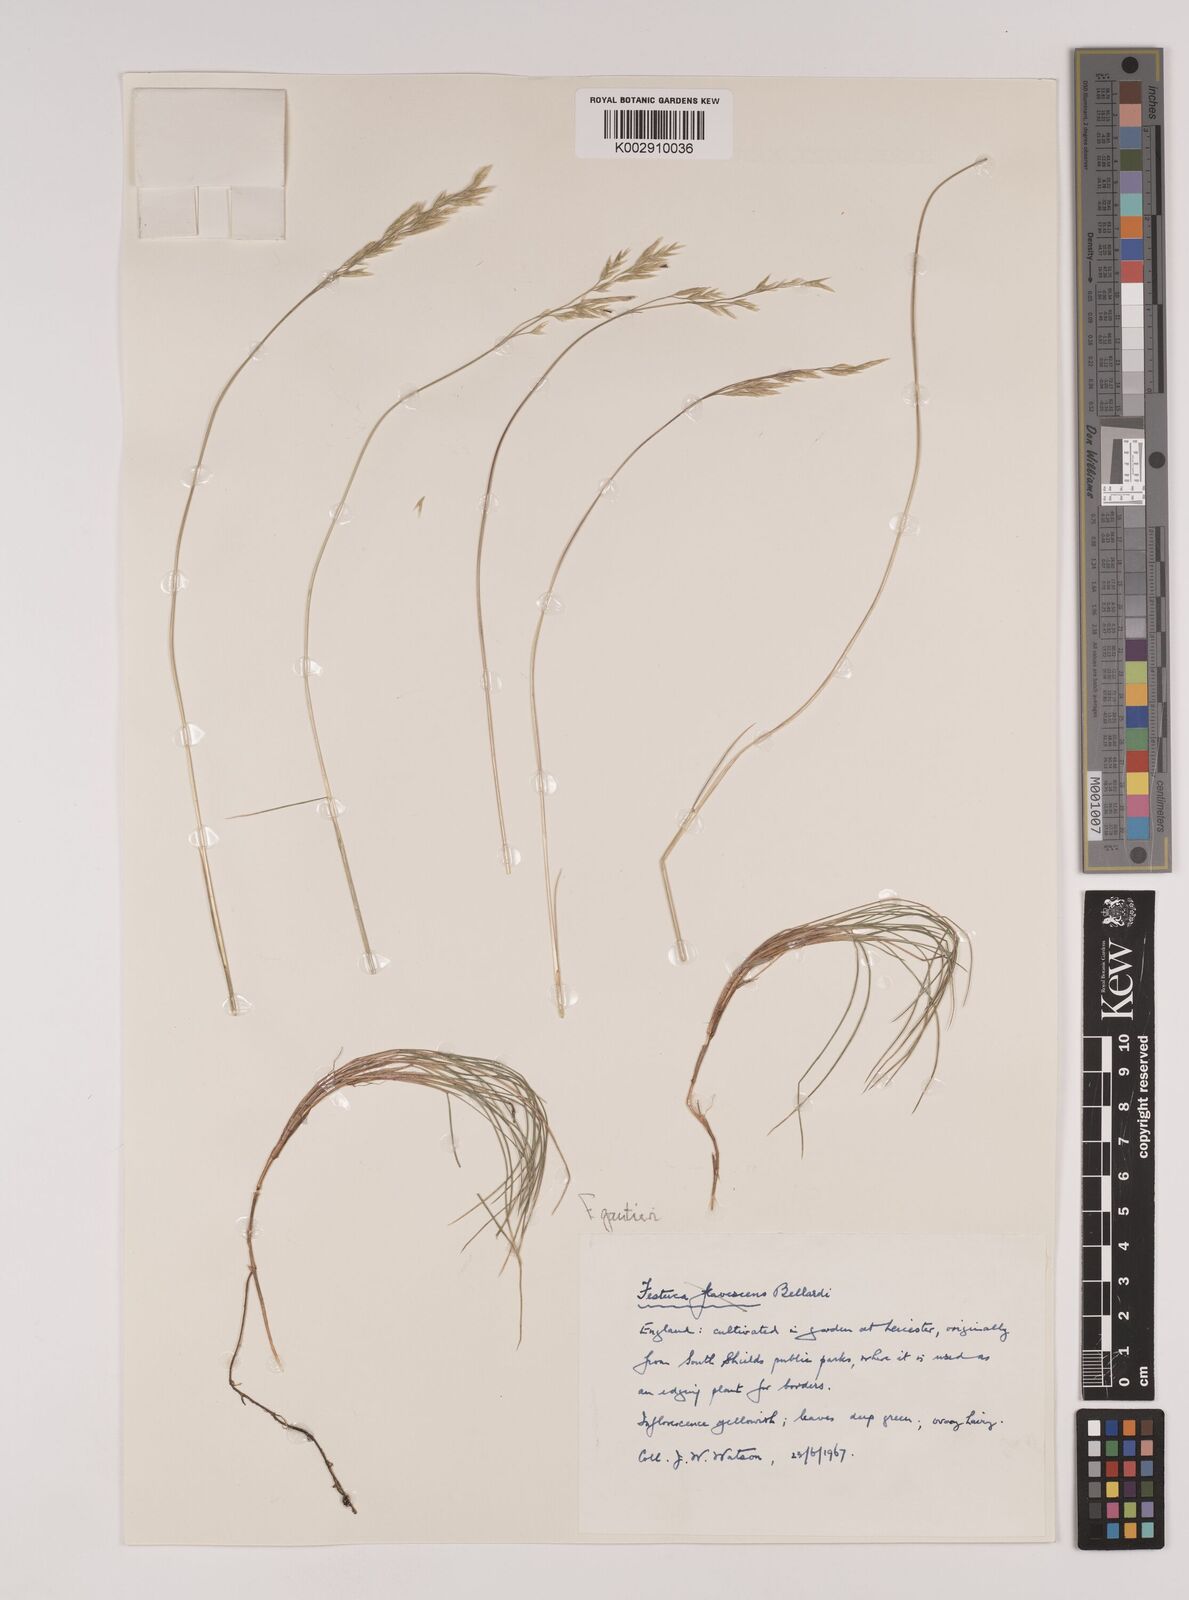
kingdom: Plantae
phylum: Tracheophyta
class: Liliopsida
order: Poales
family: Poaceae
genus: Festuca
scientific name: Festuca gautieri
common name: Spiky fescue
